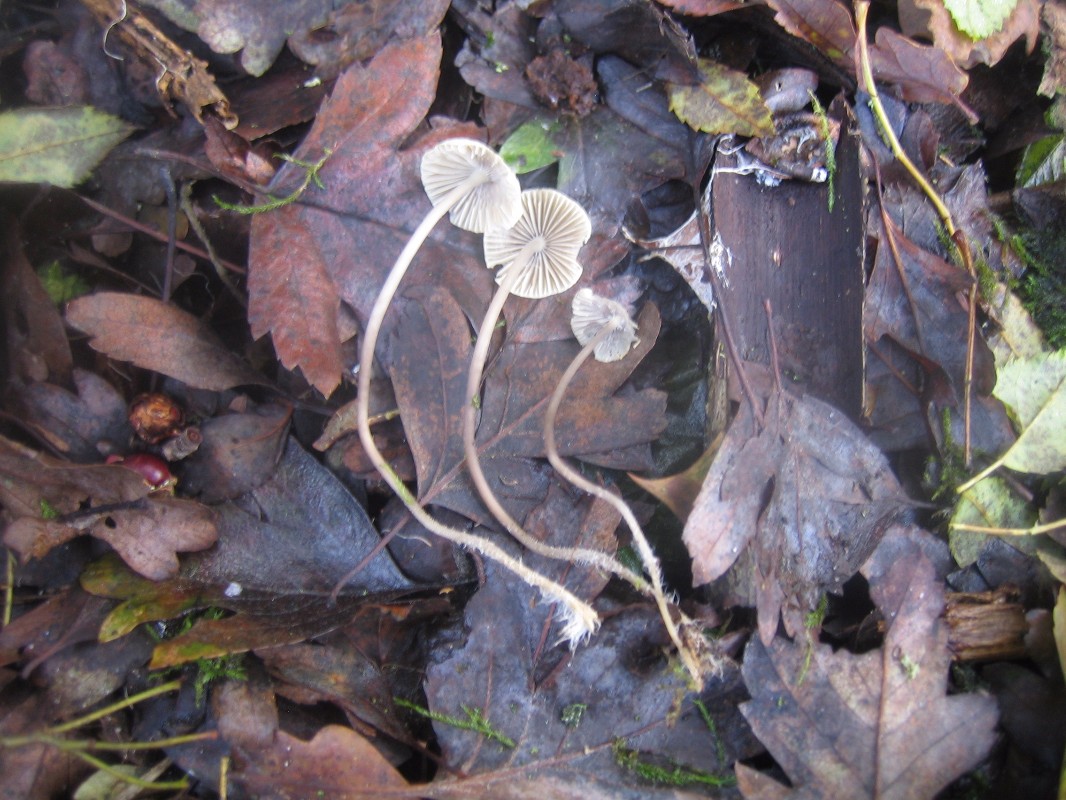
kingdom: Fungi
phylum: Basidiomycota
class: Agaricomycetes
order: Agaricales
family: Mycenaceae
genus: Mycena
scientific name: Mycena arcangeliana
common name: oliven-huesvamp
